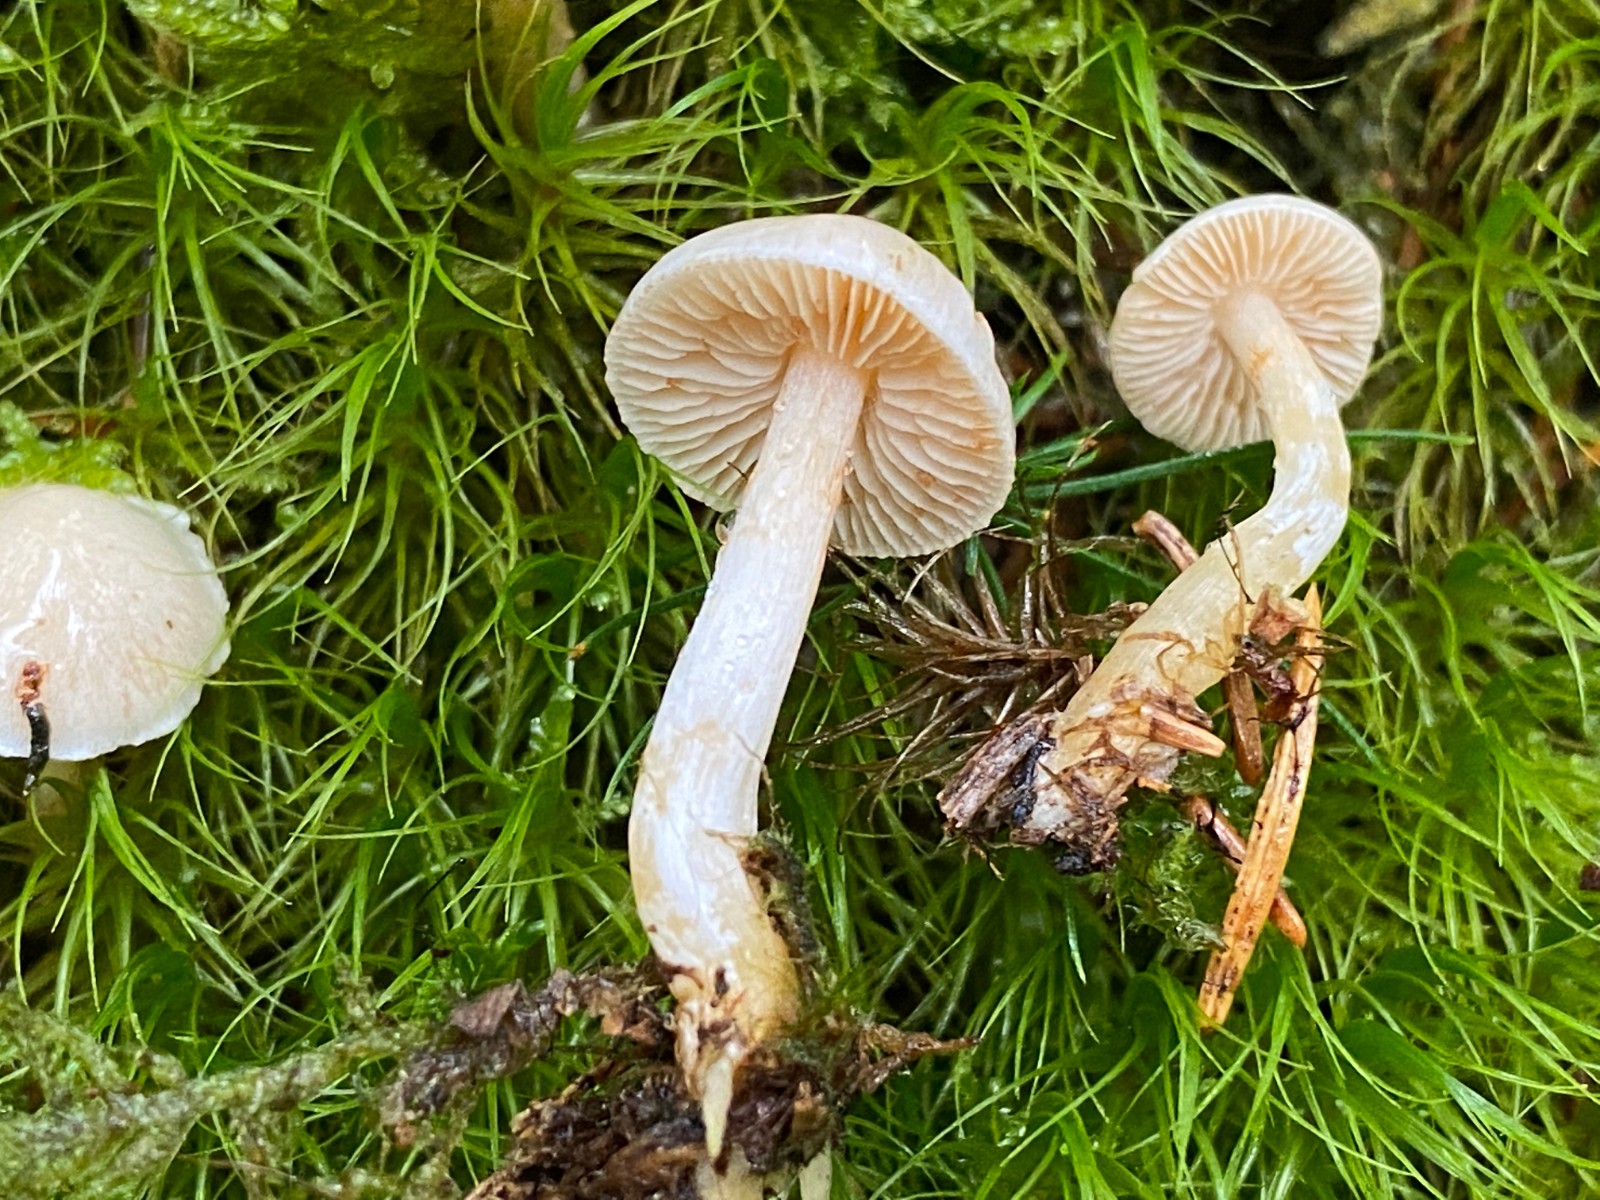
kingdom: Fungi
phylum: Basidiomycota
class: Agaricomycetes
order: Agaricales
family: Cortinariaceae
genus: Thaxterogaster
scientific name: Thaxterogaster
